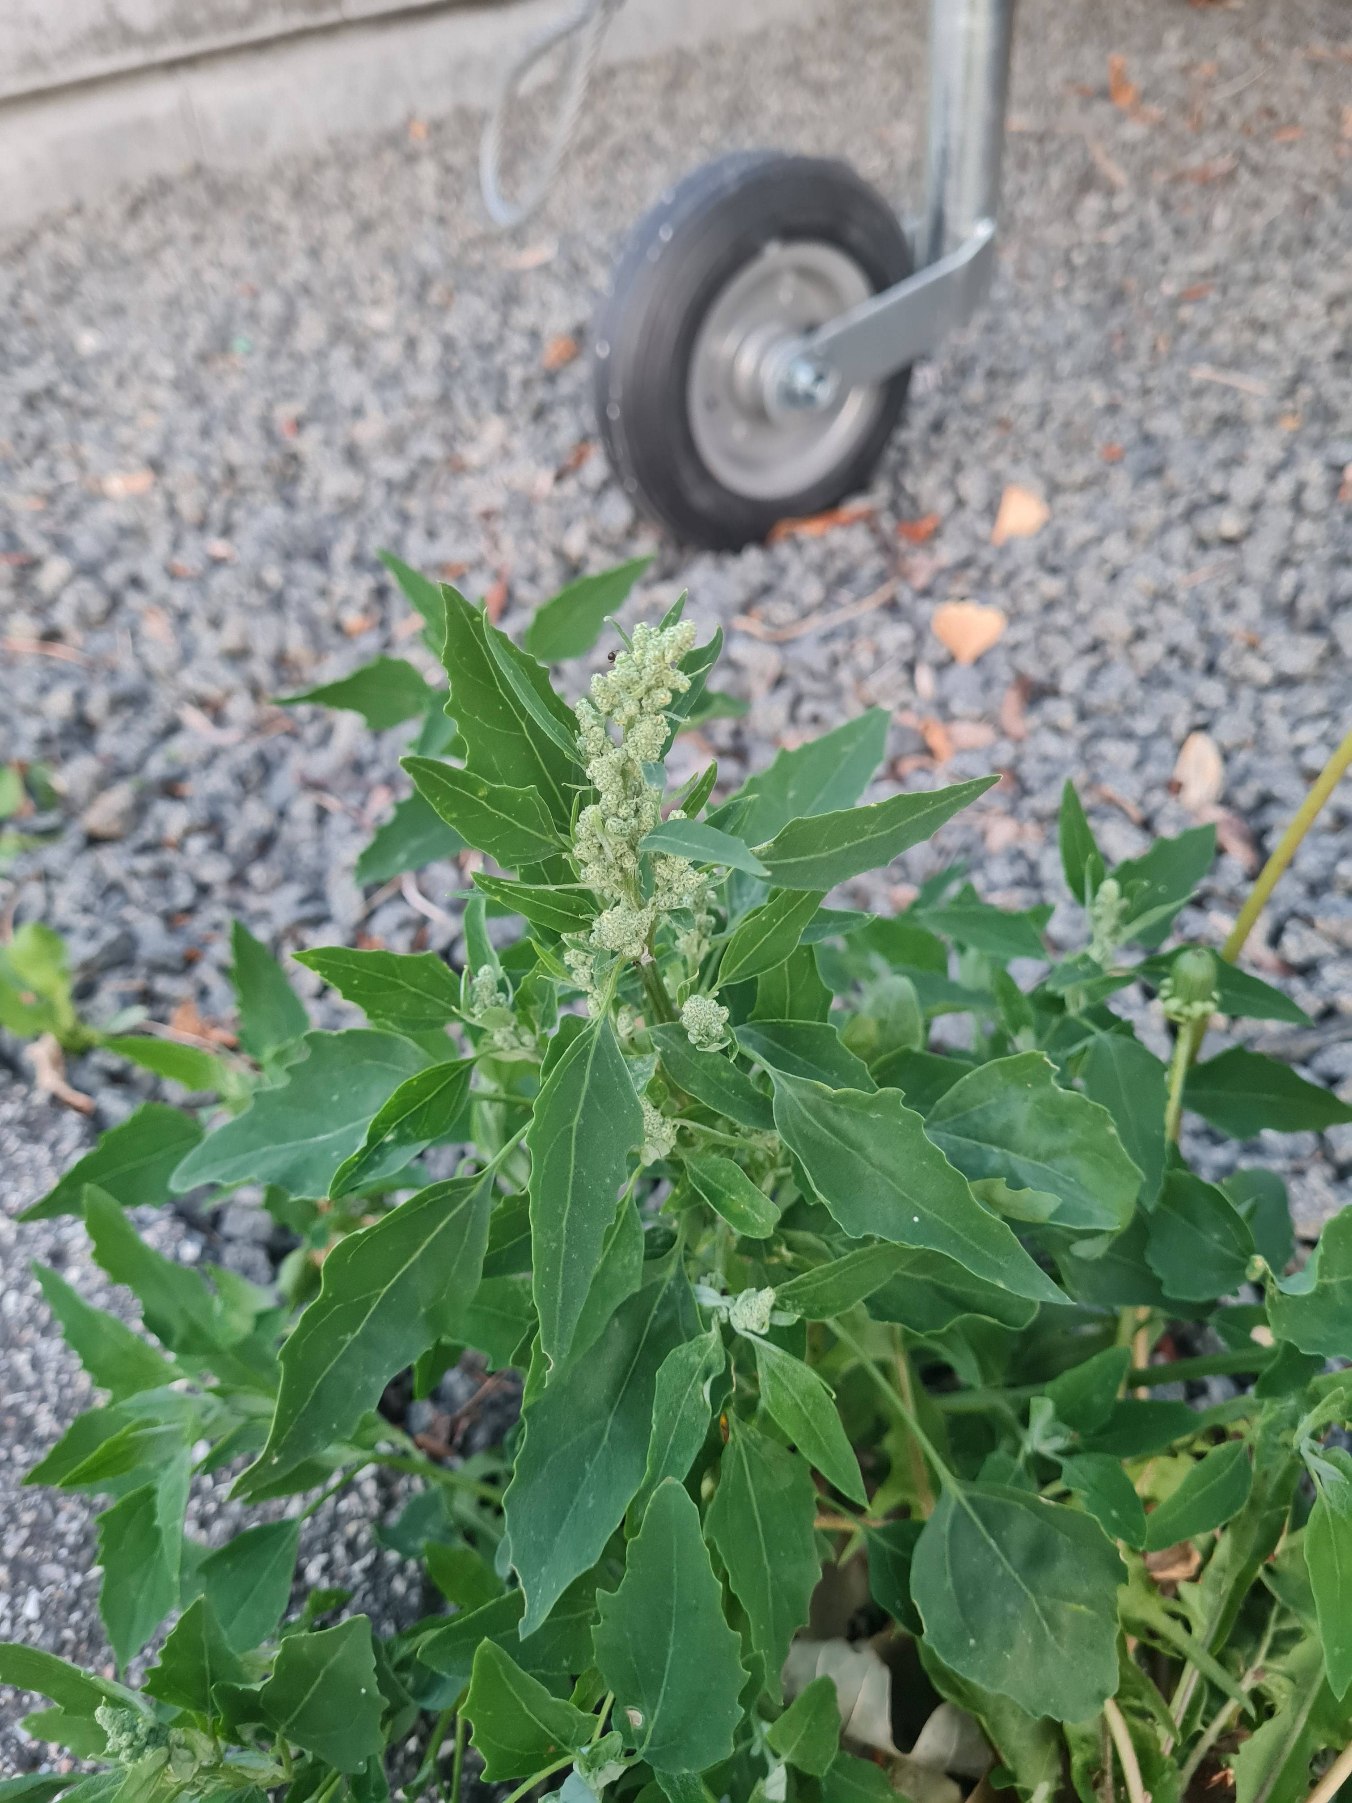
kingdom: Plantae
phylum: Tracheophyta
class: Magnoliopsida
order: Caryophyllales
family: Amaranthaceae
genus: Chenopodium
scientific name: Chenopodium album
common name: Hvidmelet gåsefod
